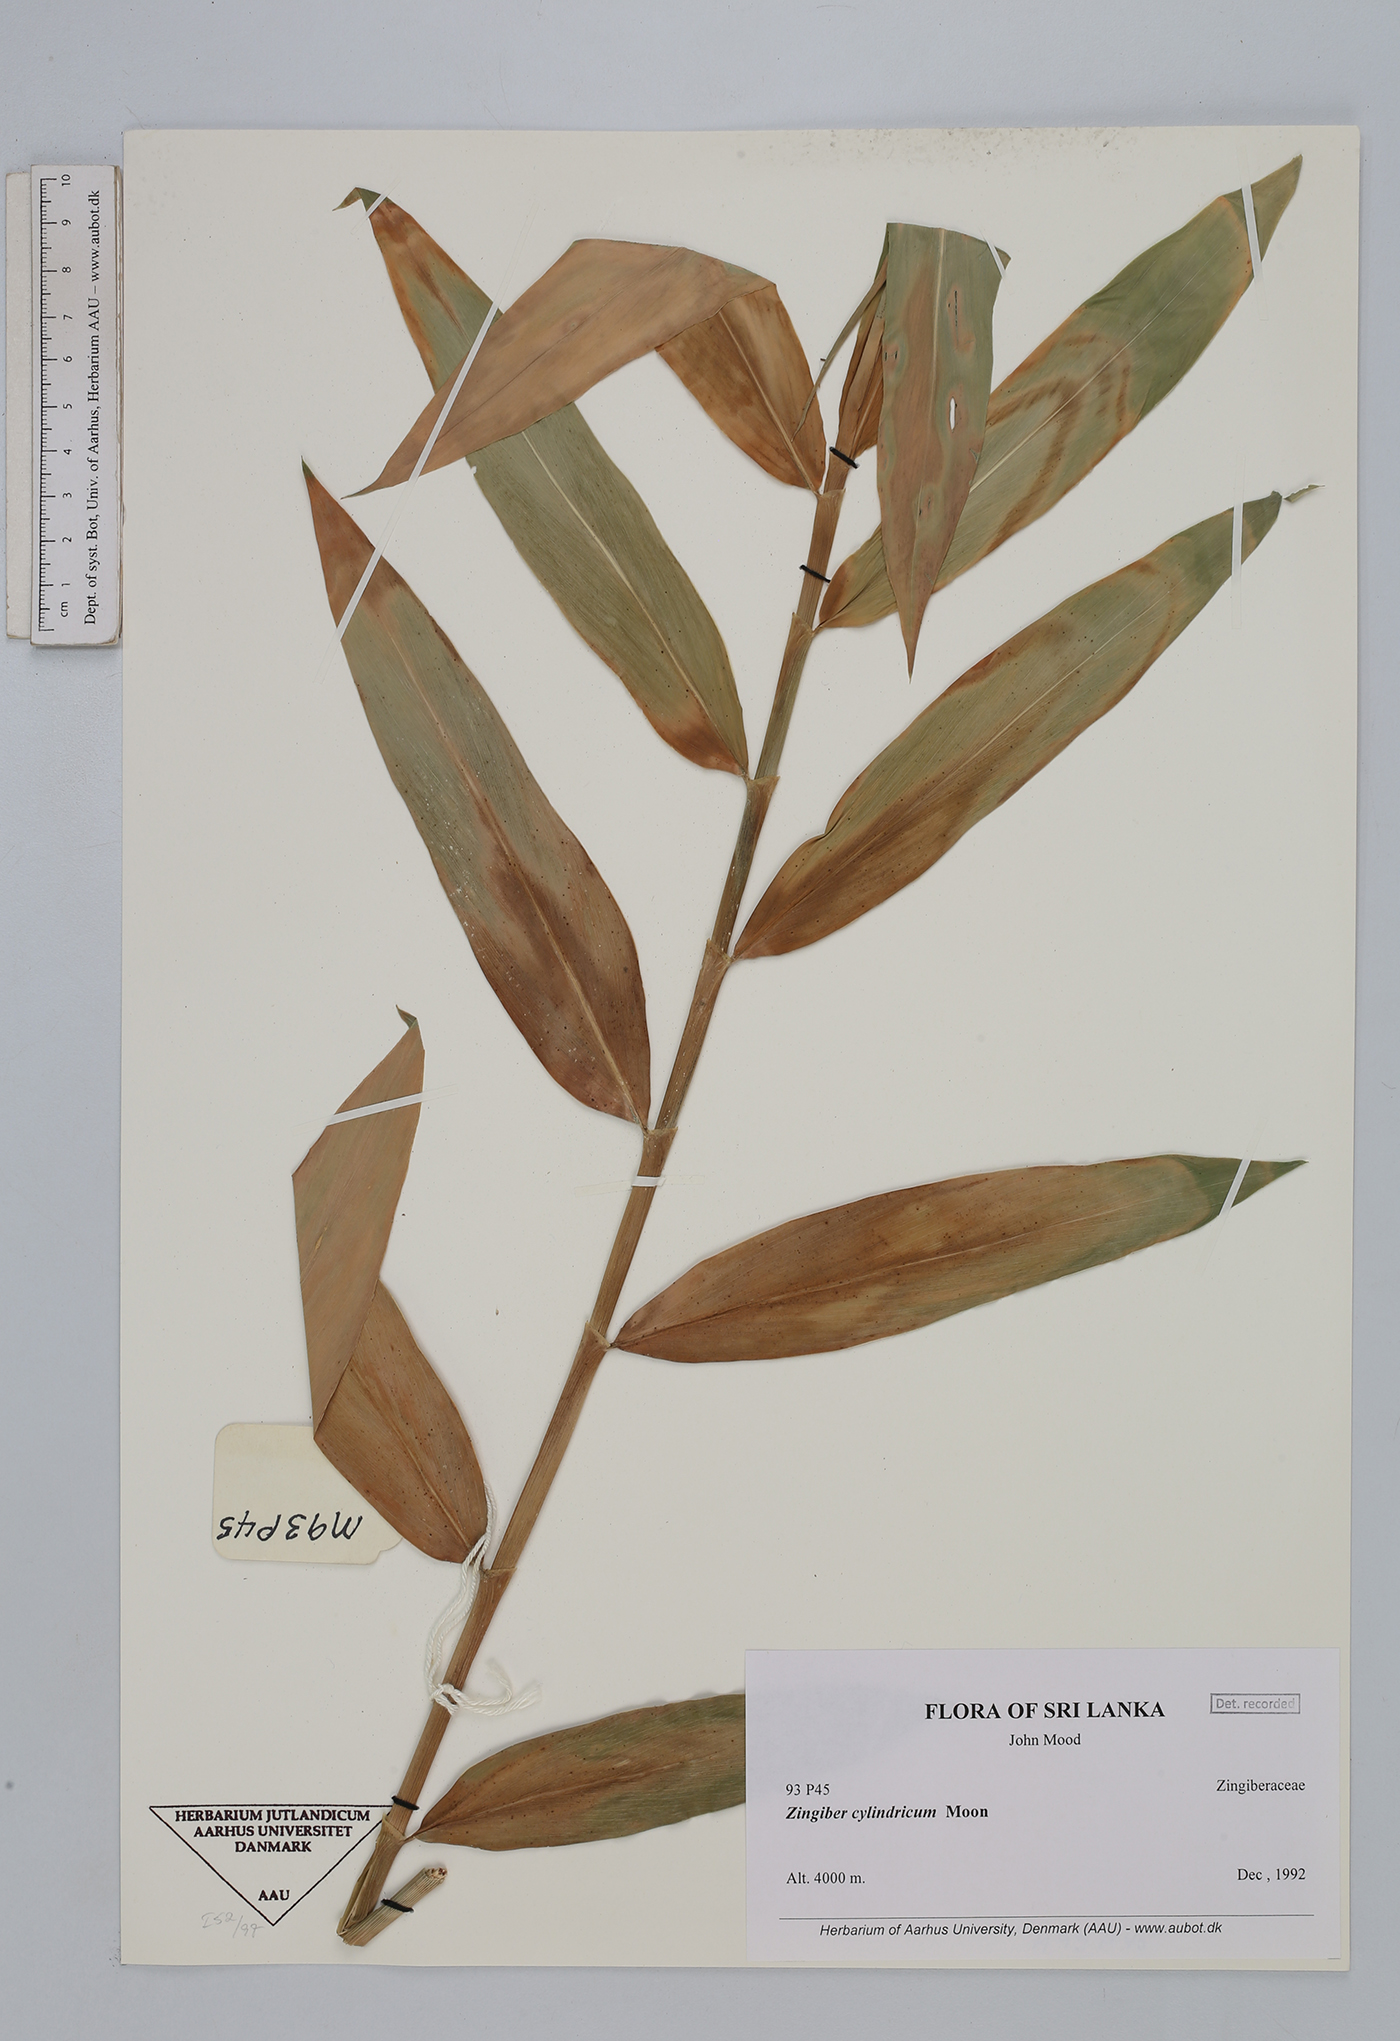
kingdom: Plantae
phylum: Tracheophyta
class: Liliopsida
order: Zingiberales
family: Zingiberaceae
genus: Zingiber
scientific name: Zingiber cylindricum
